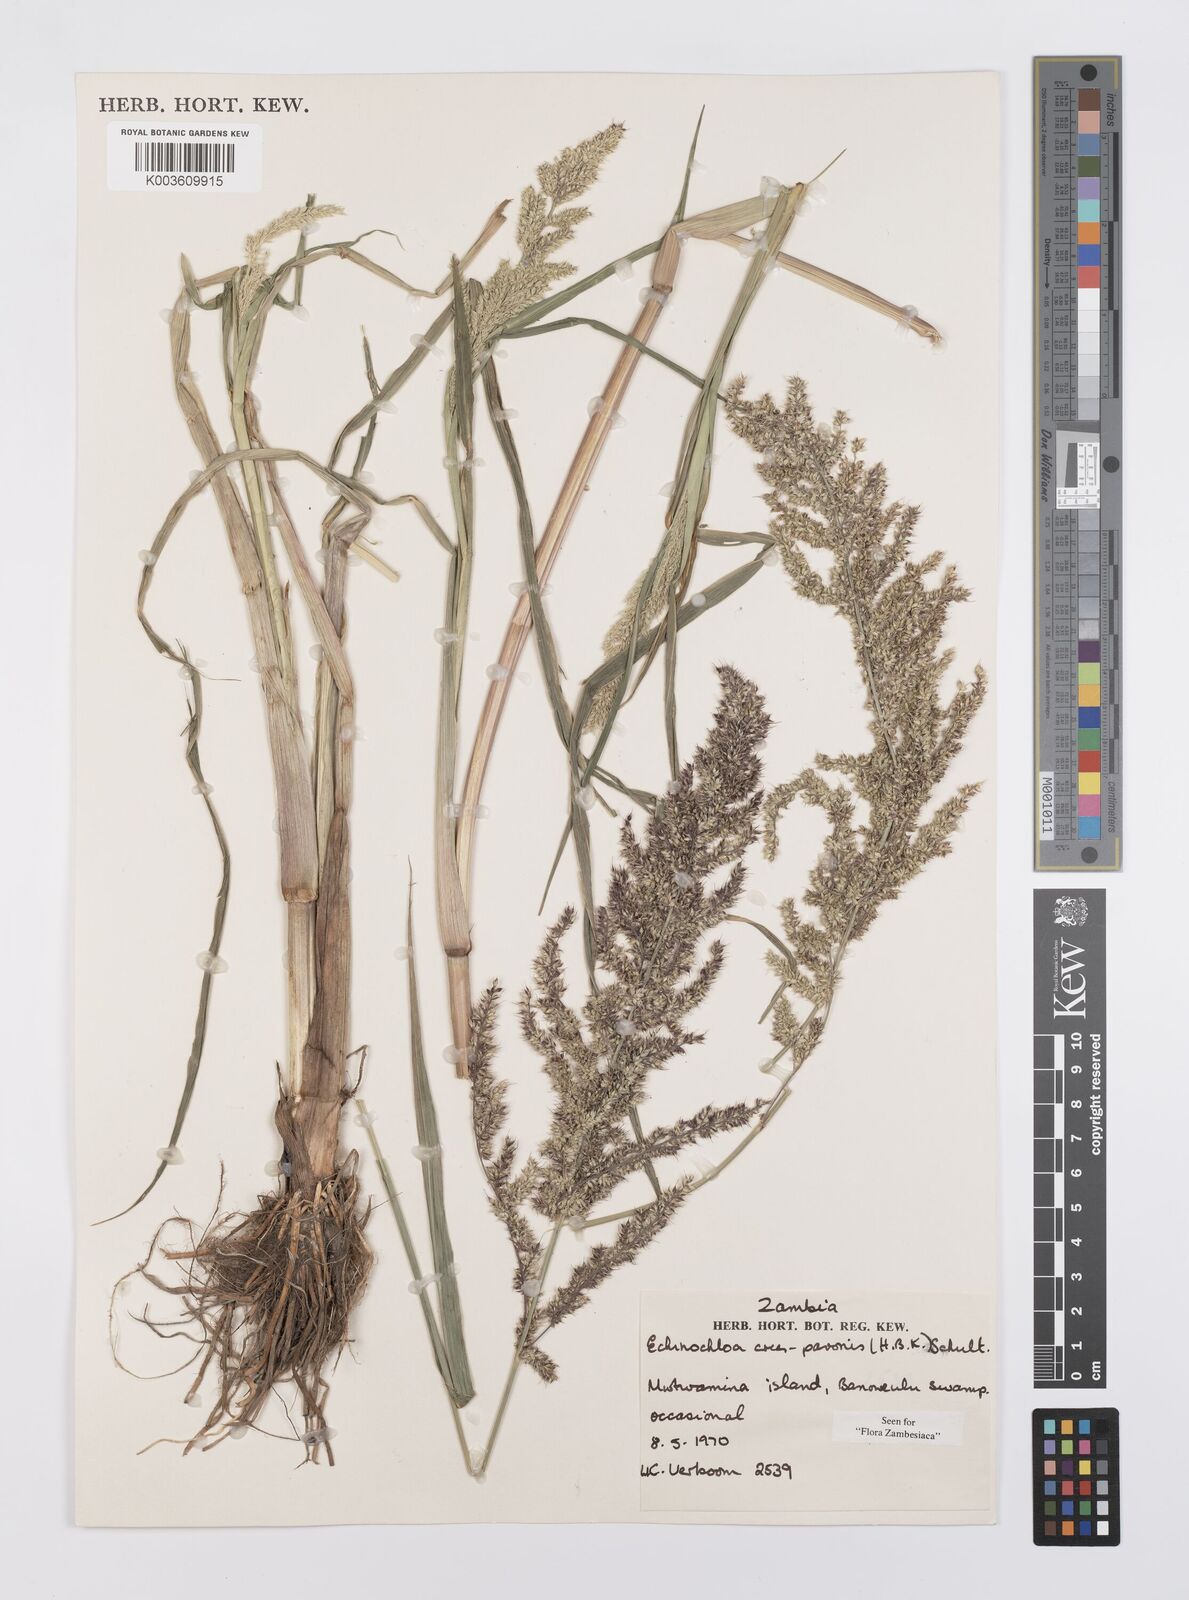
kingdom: Plantae
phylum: Tracheophyta
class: Liliopsida
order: Poales
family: Poaceae
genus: Echinochloa
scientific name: Echinochloa crus-pavonis
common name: Gulf cockspur grass
